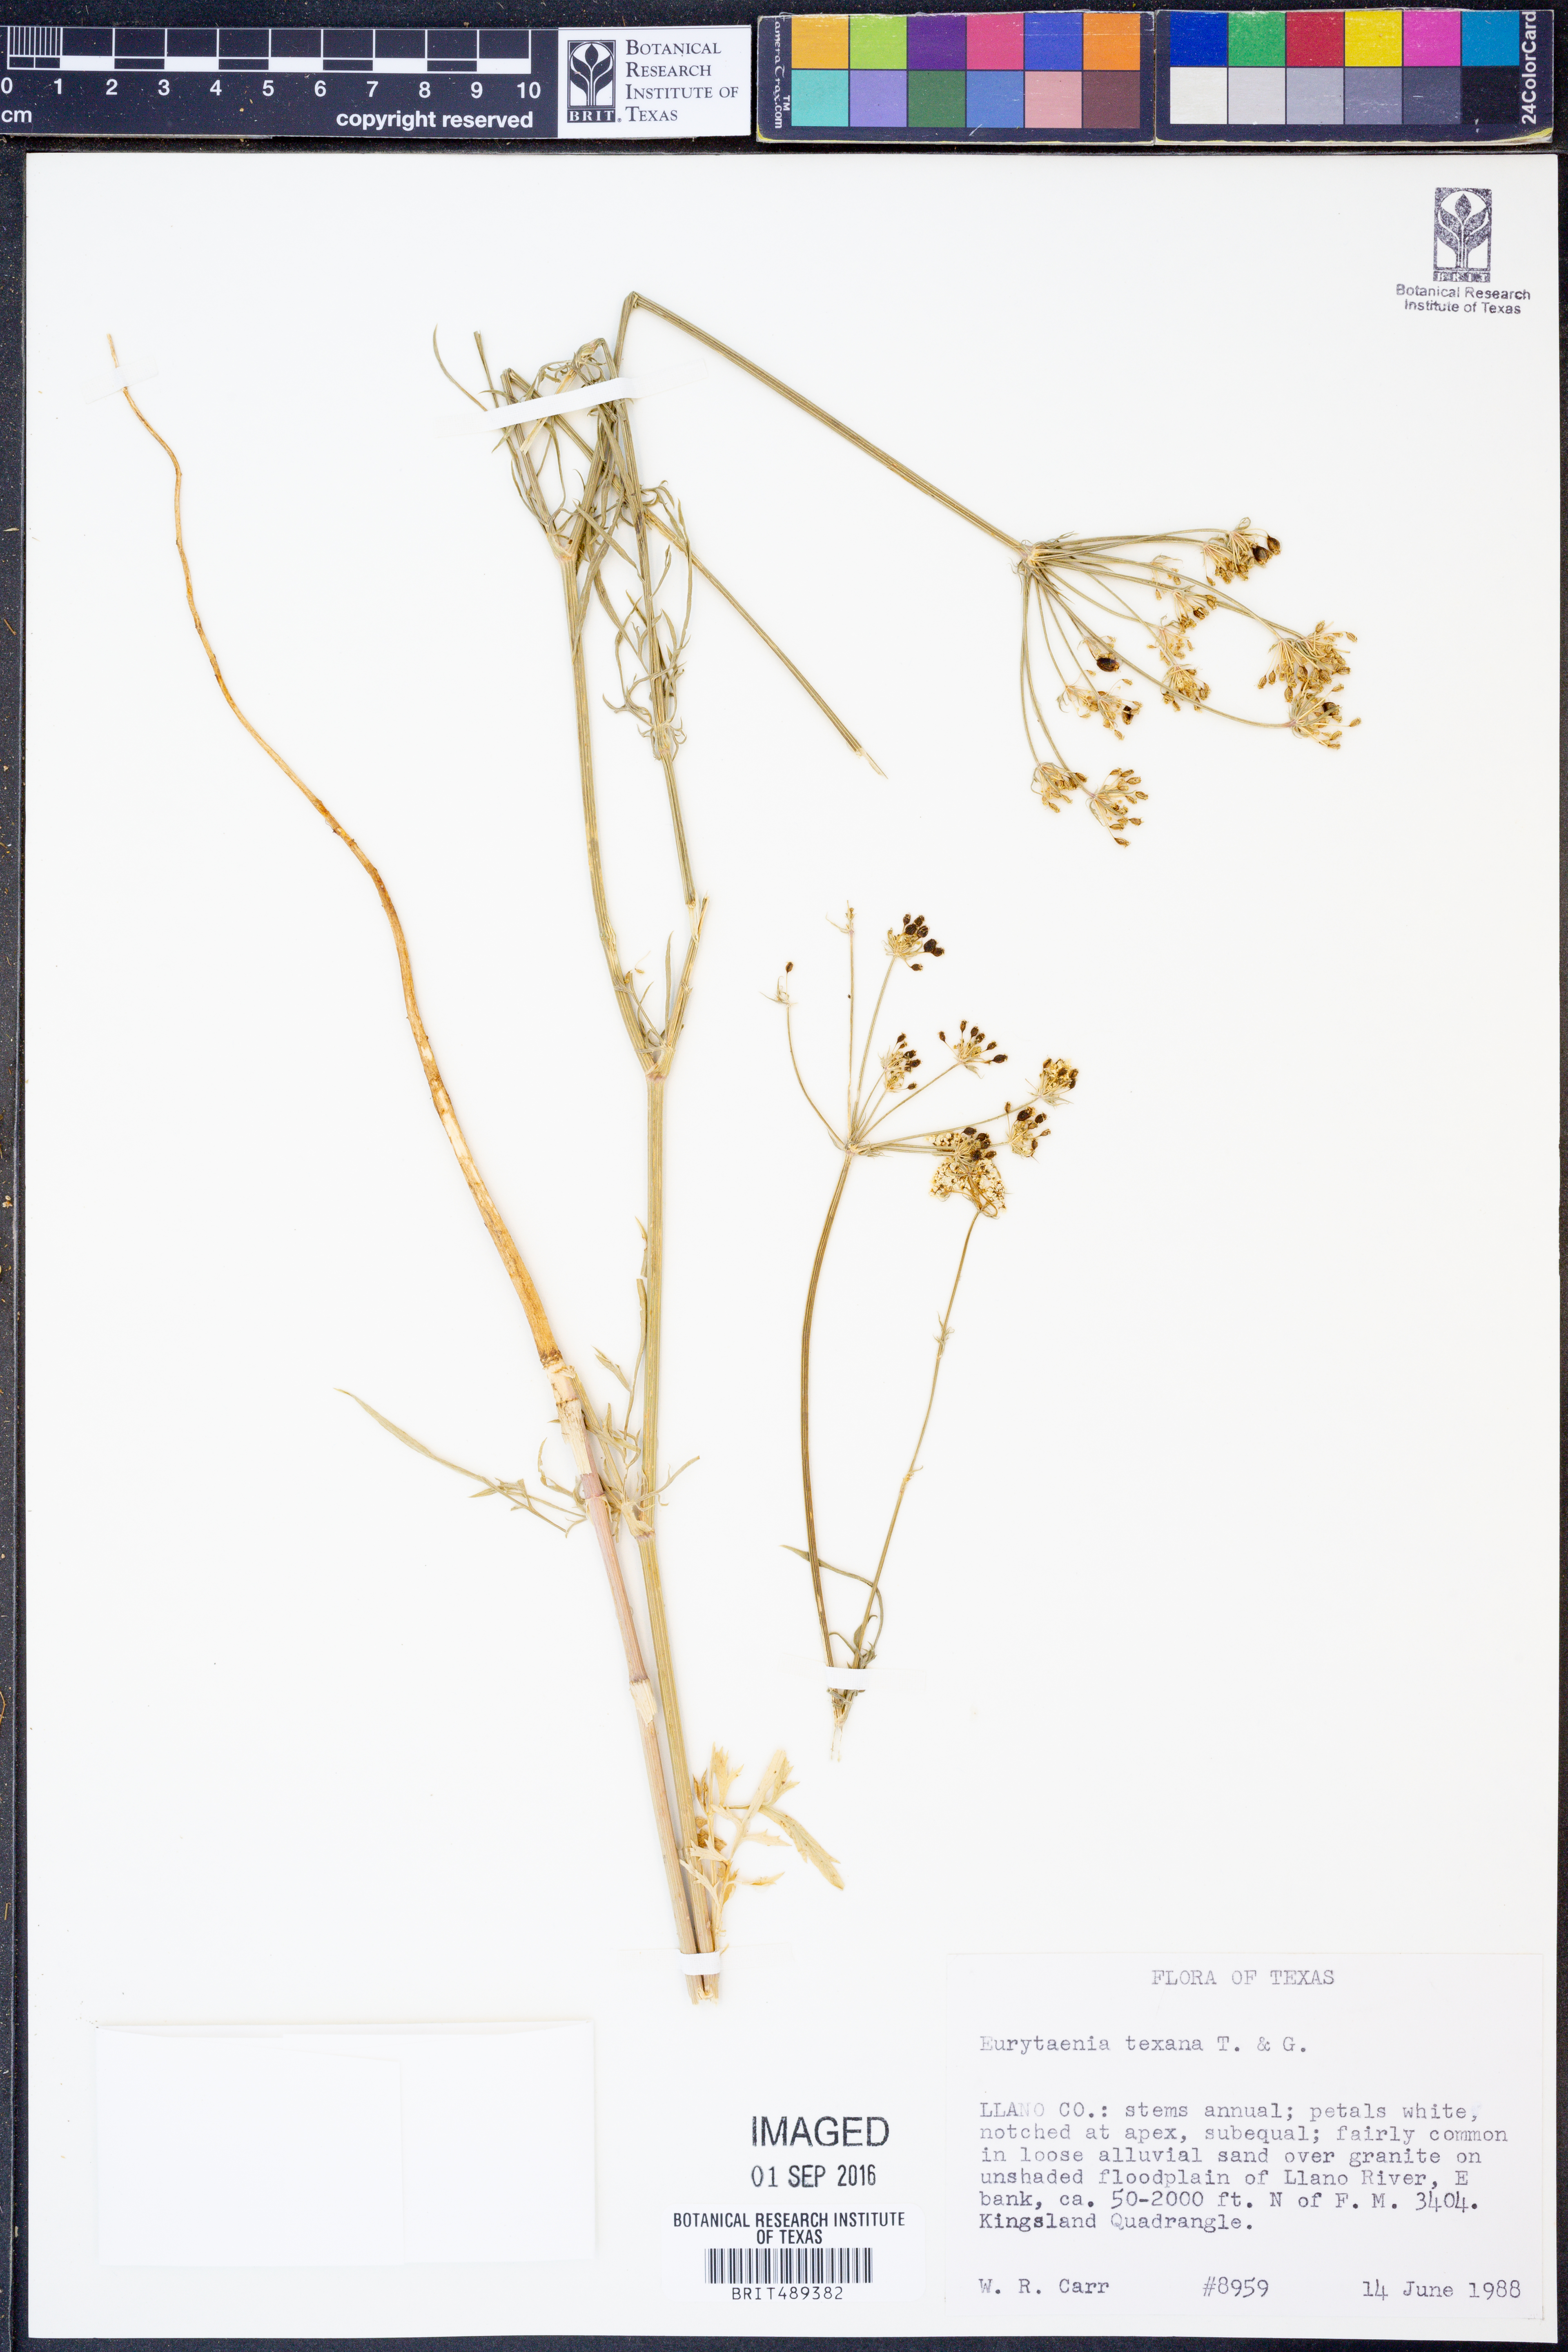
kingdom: Plantae
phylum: Tracheophyta
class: Magnoliopsida
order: Apiales
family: Apiaceae
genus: Eurytaenia
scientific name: Eurytaenia texana
